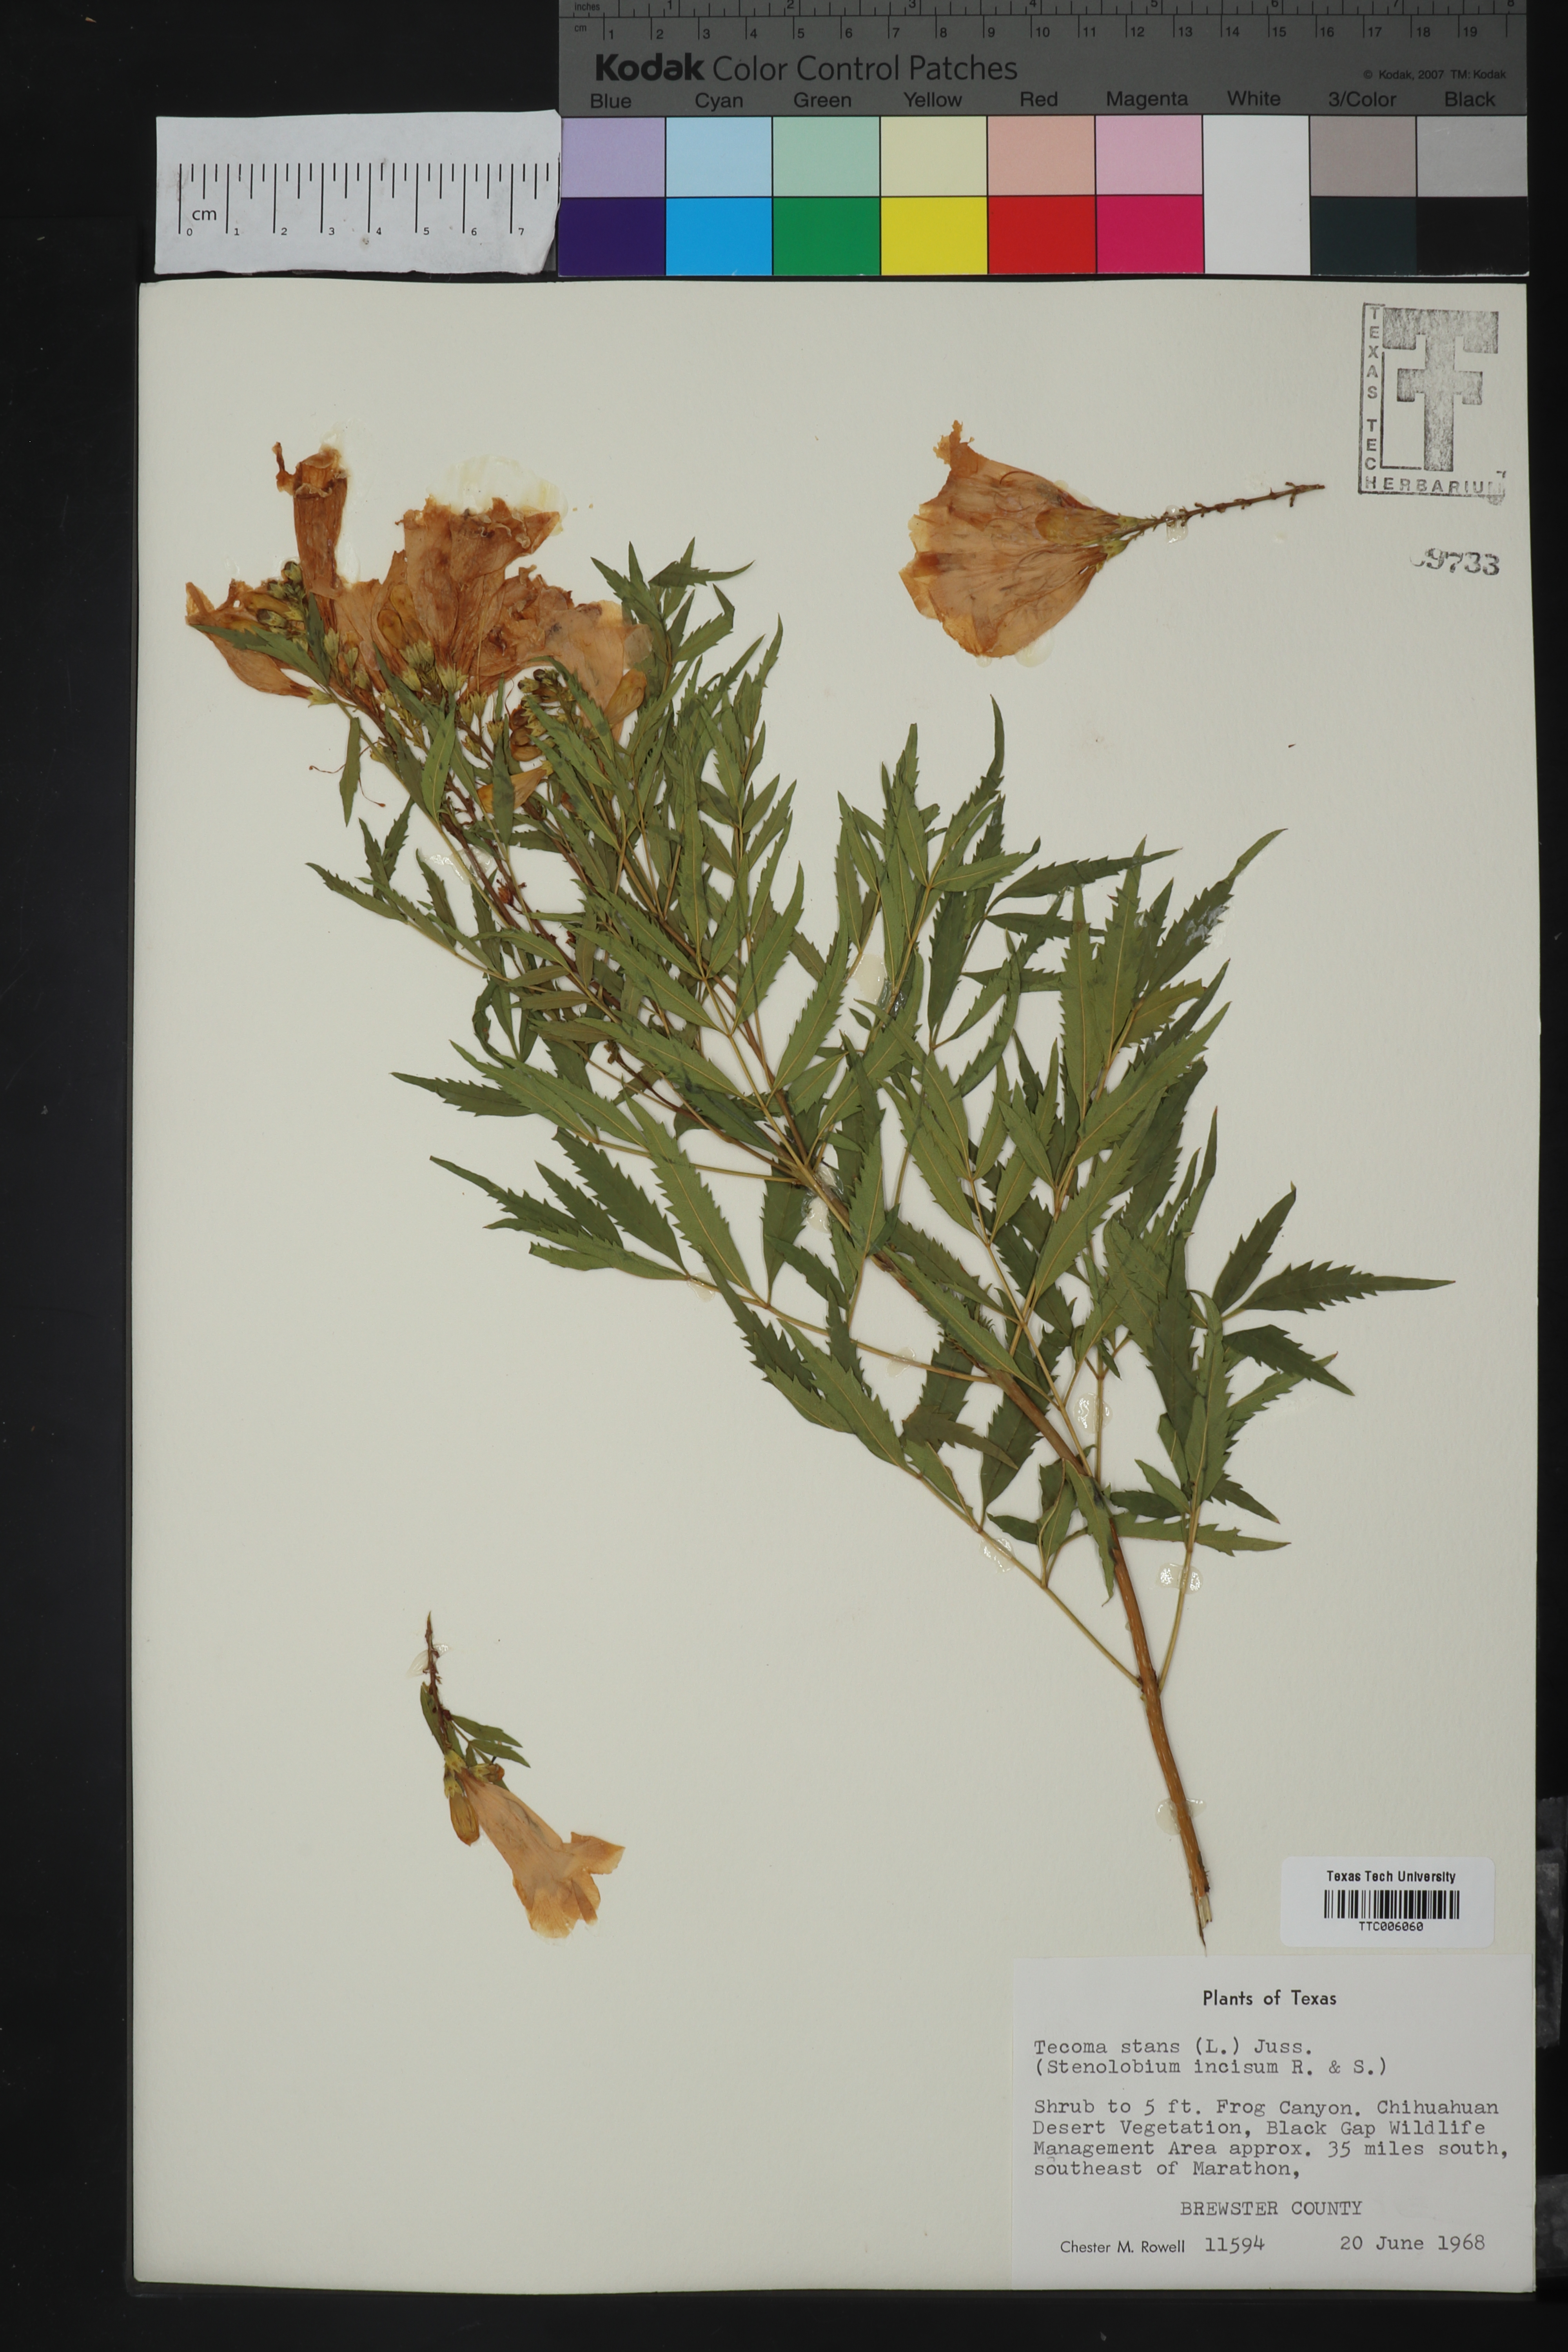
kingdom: Plantae
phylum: Tracheophyta
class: Magnoliopsida
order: Lamiales
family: Bignoniaceae
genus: Tecoma
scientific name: Tecoma stans
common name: Yellow trumpetbush
